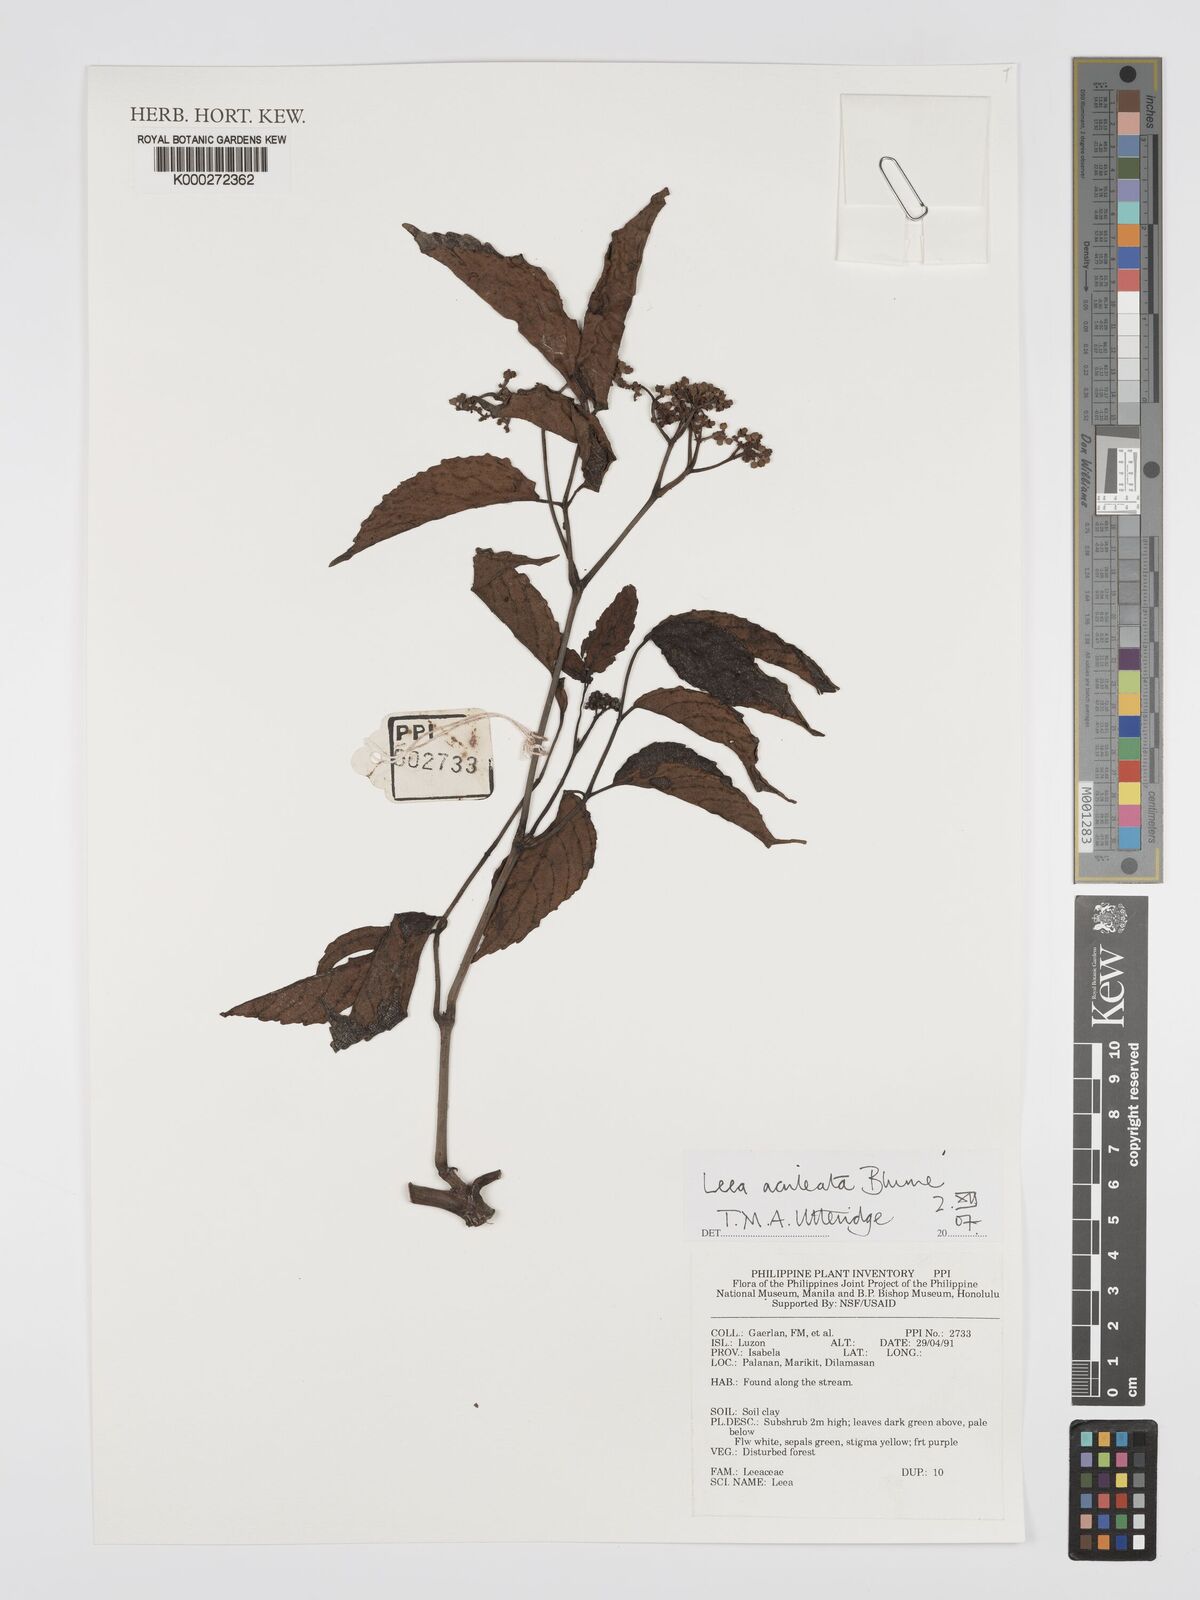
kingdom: Plantae
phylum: Tracheophyta
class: Magnoliopsida
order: Vitales
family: Vitaceae
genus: Leea
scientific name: Leea aculeata
